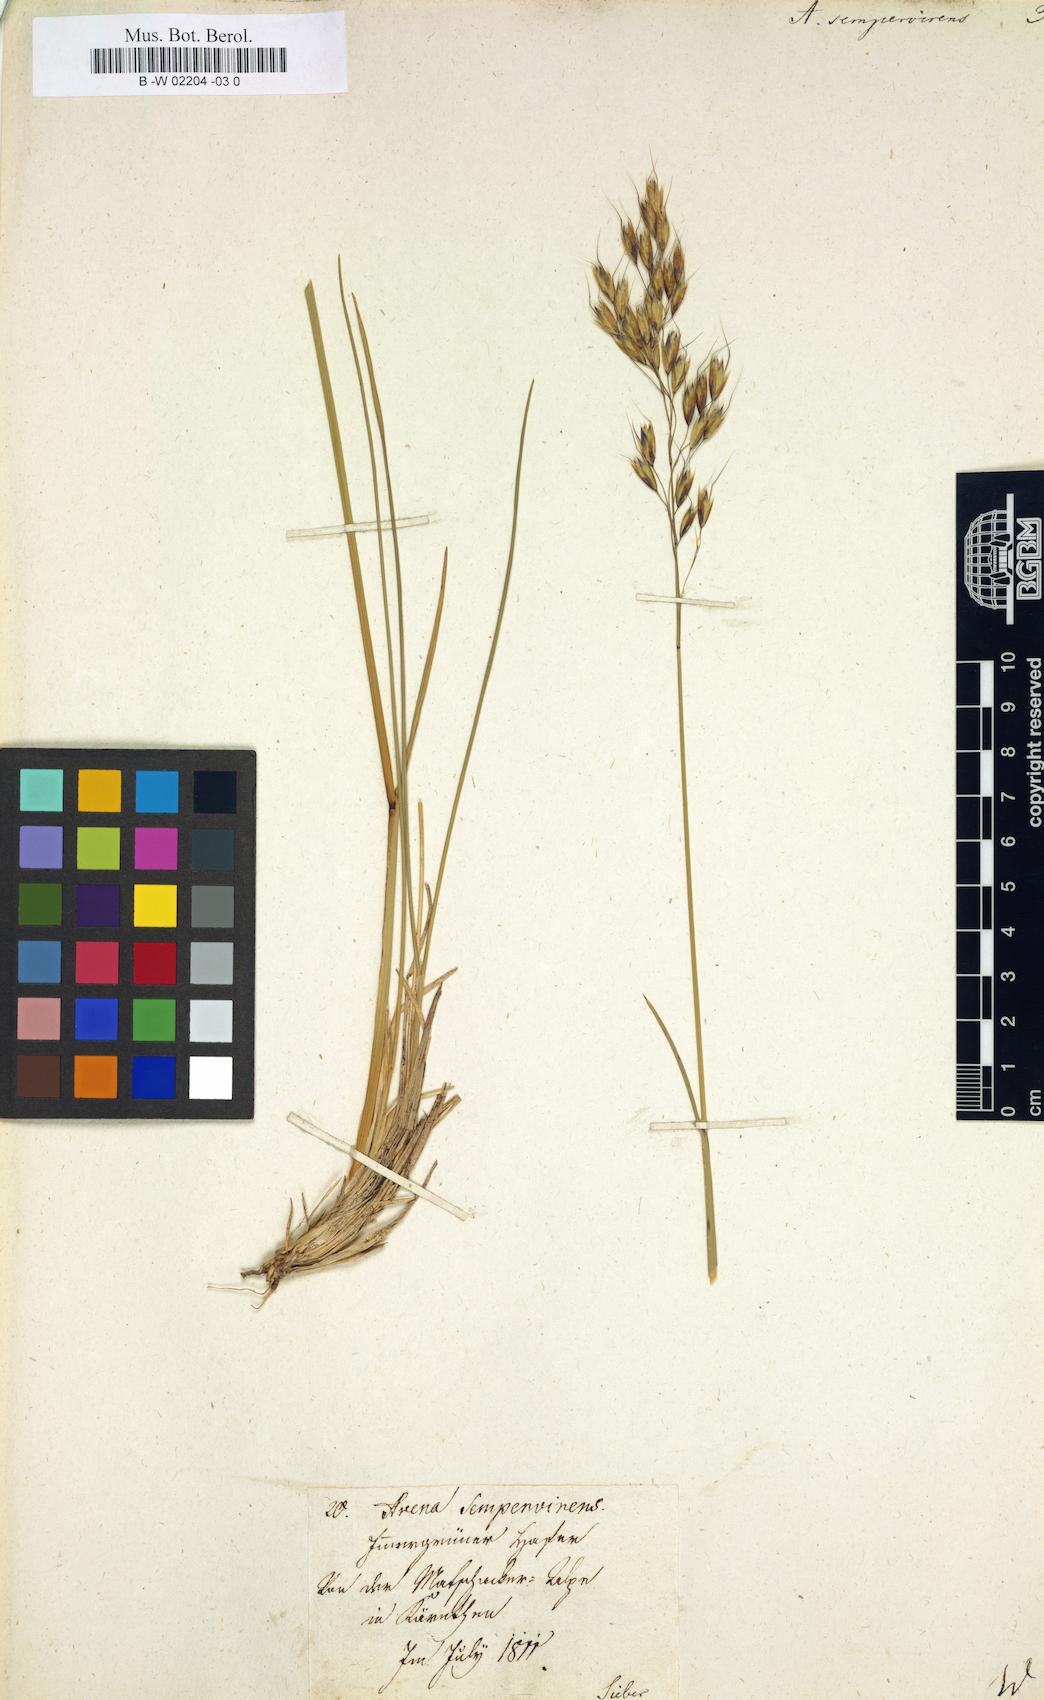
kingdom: Plantae
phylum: Tracheophyta
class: Liliopsida
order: Poales
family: Poaceae
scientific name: Poaceae
